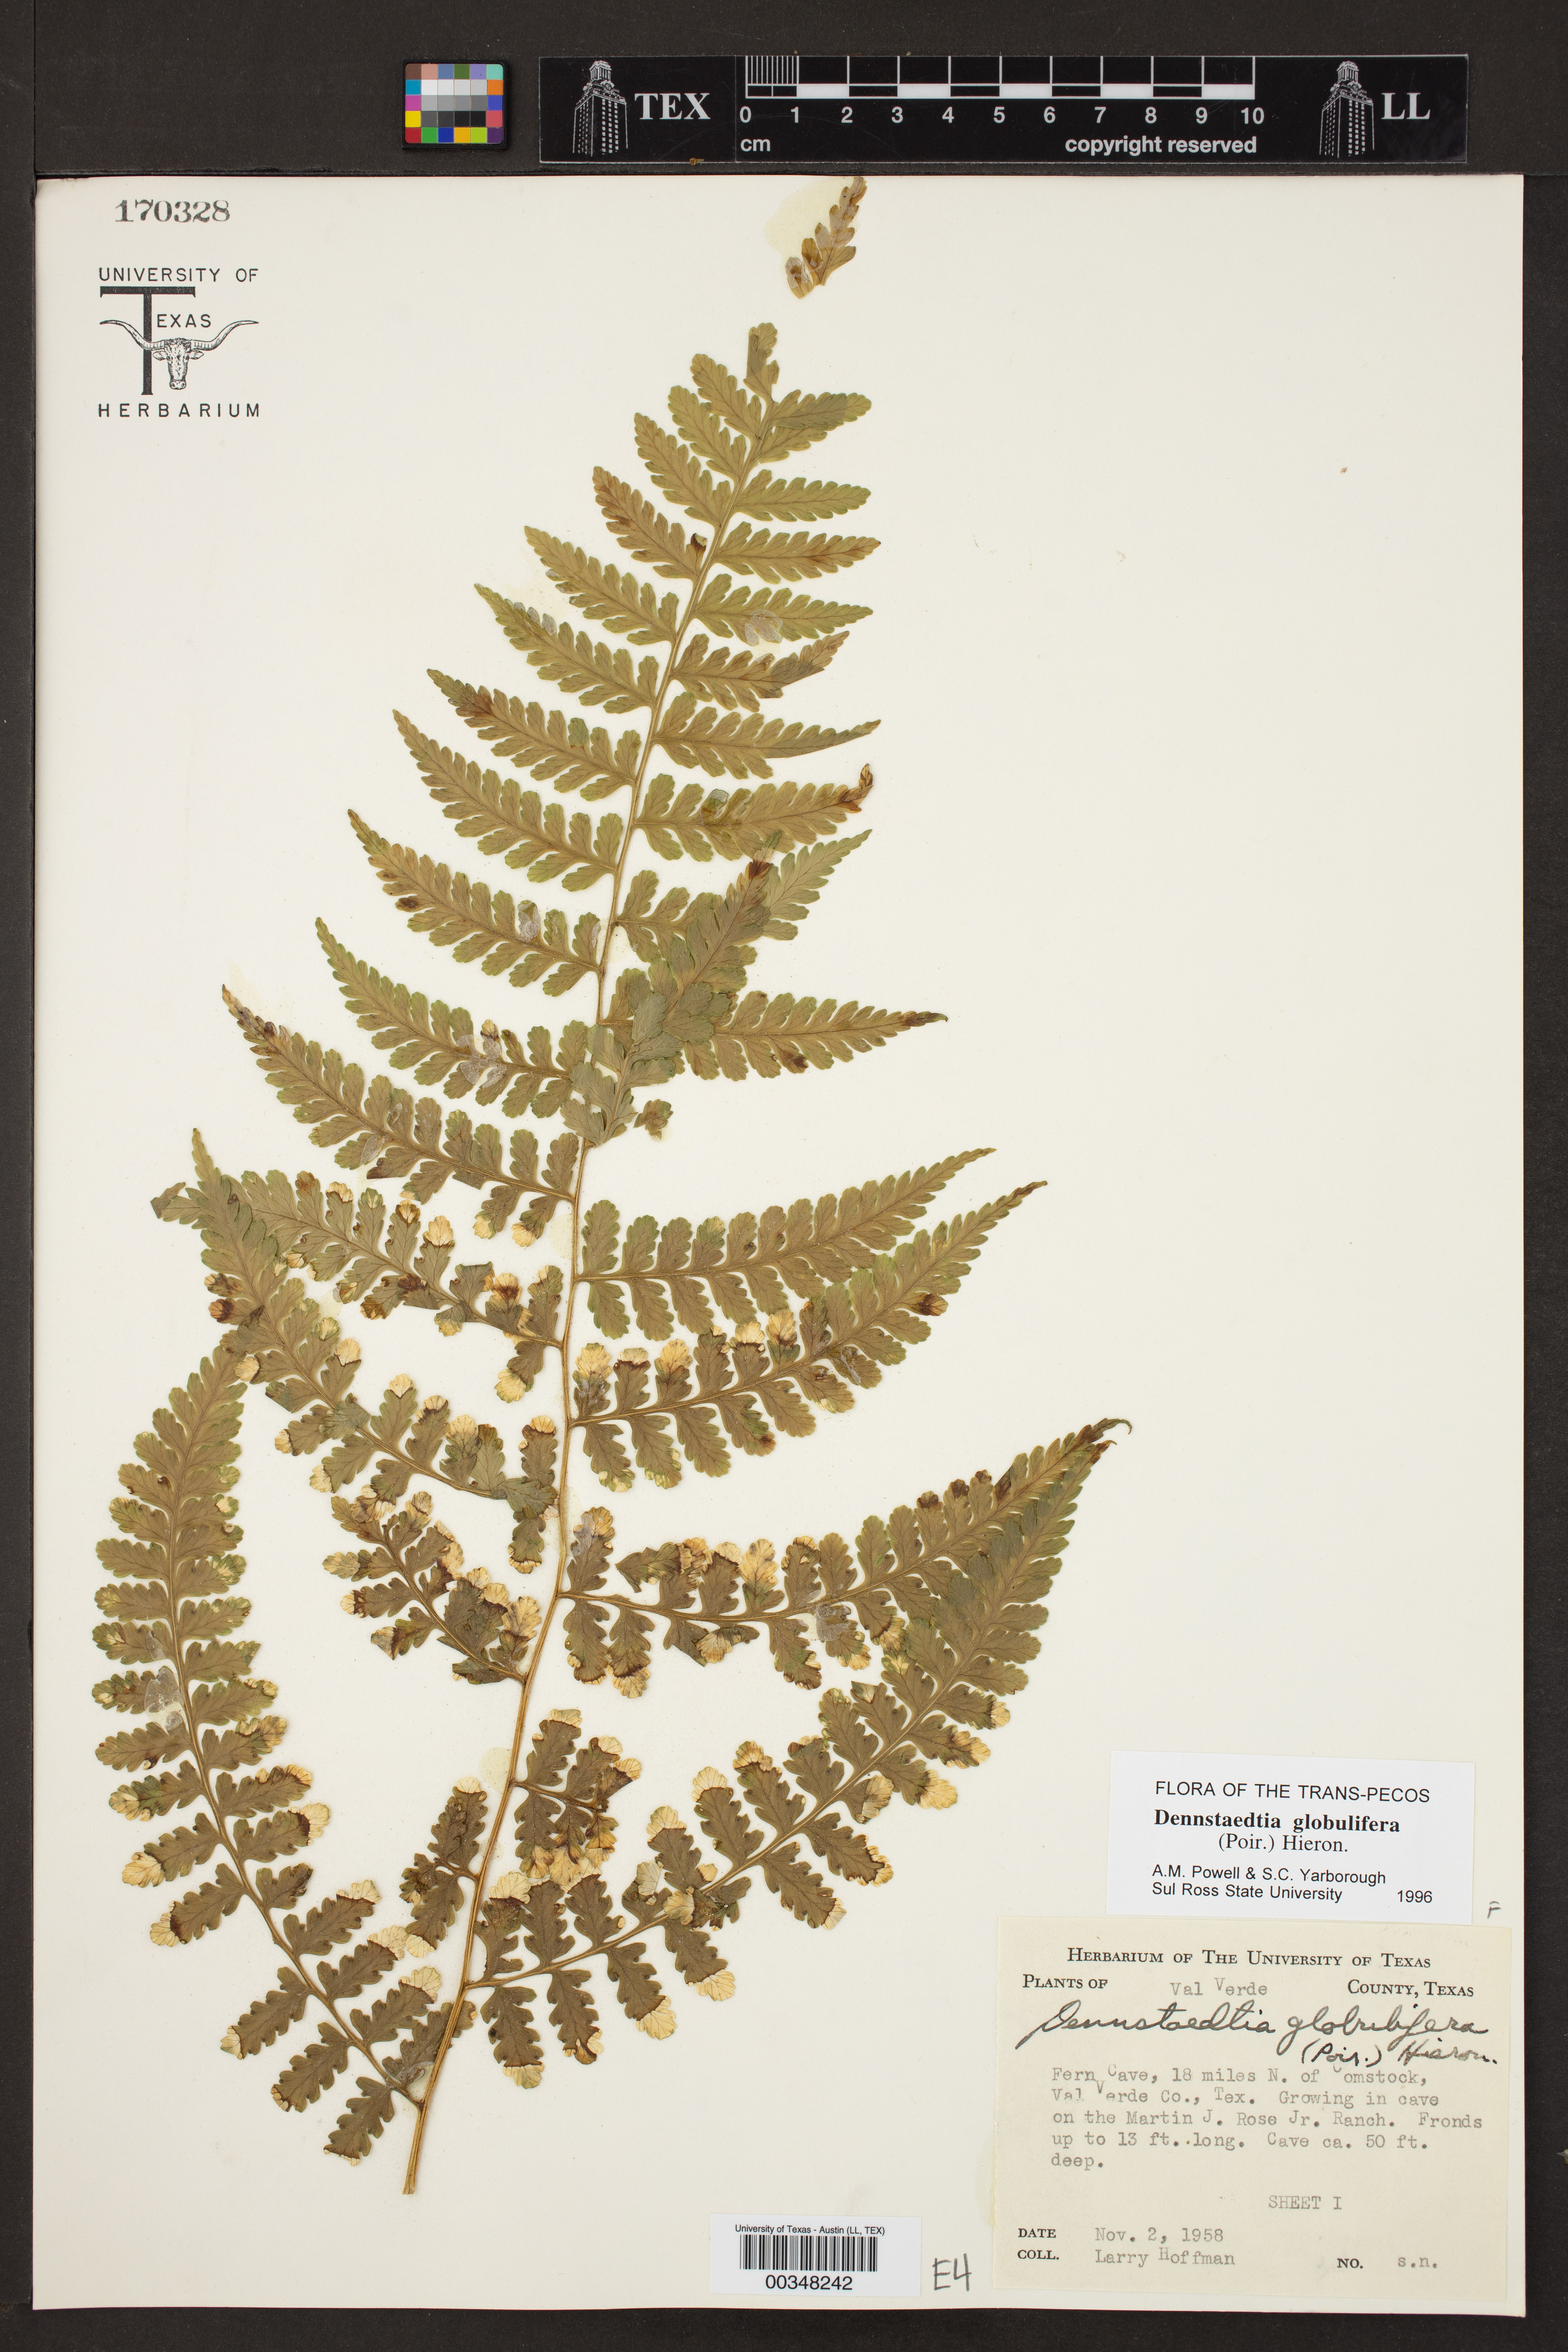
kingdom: Plantae
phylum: Tracheophyta
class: Polypodiopsida
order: Polypodiales
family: Dennstaedtiaceae
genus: Mucura
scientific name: Mucura globulifera
